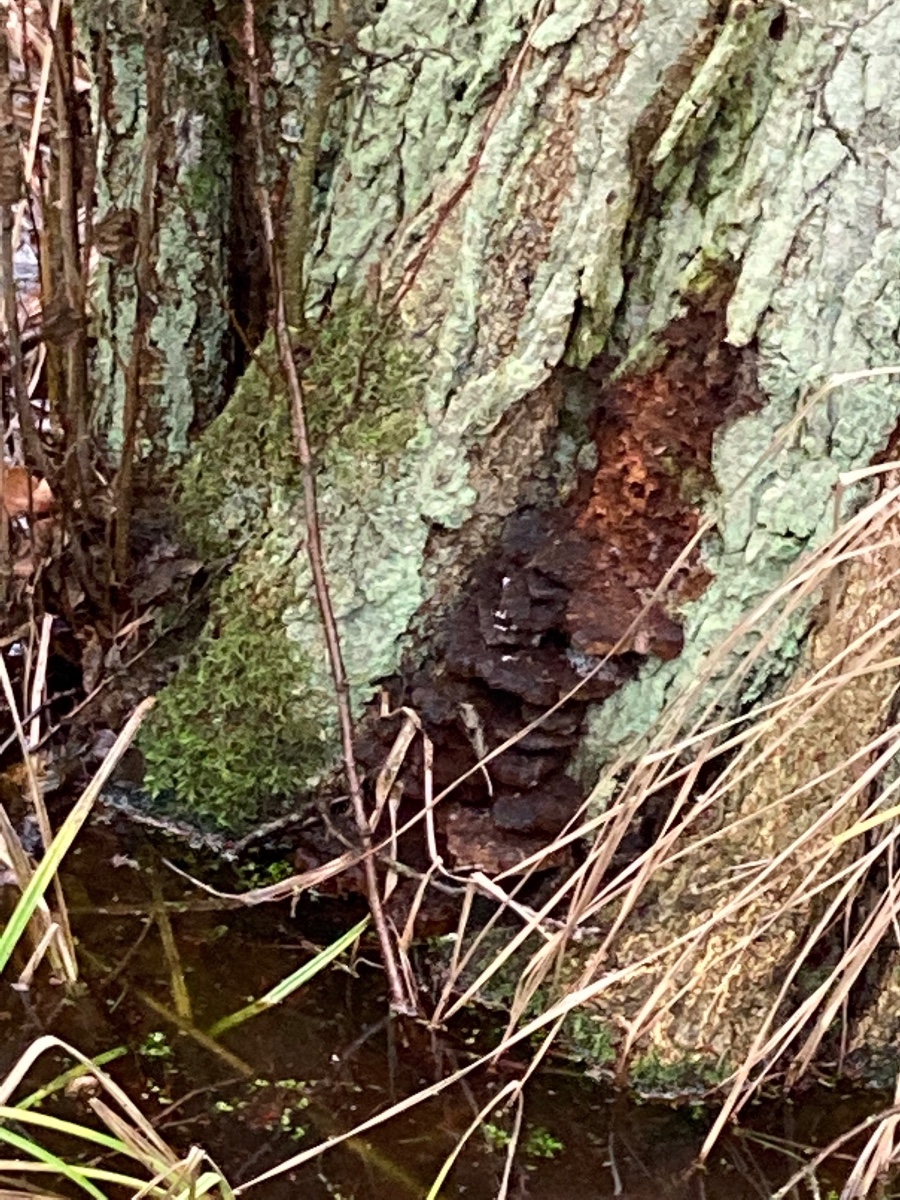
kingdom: Fungi
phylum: Basidiomycota
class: Agaricomycetes
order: Hymenochaetales
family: Hymenochaetaceae
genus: Xanthoporia
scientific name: Xanthoporia radiata
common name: elle-spejlporesvamp
